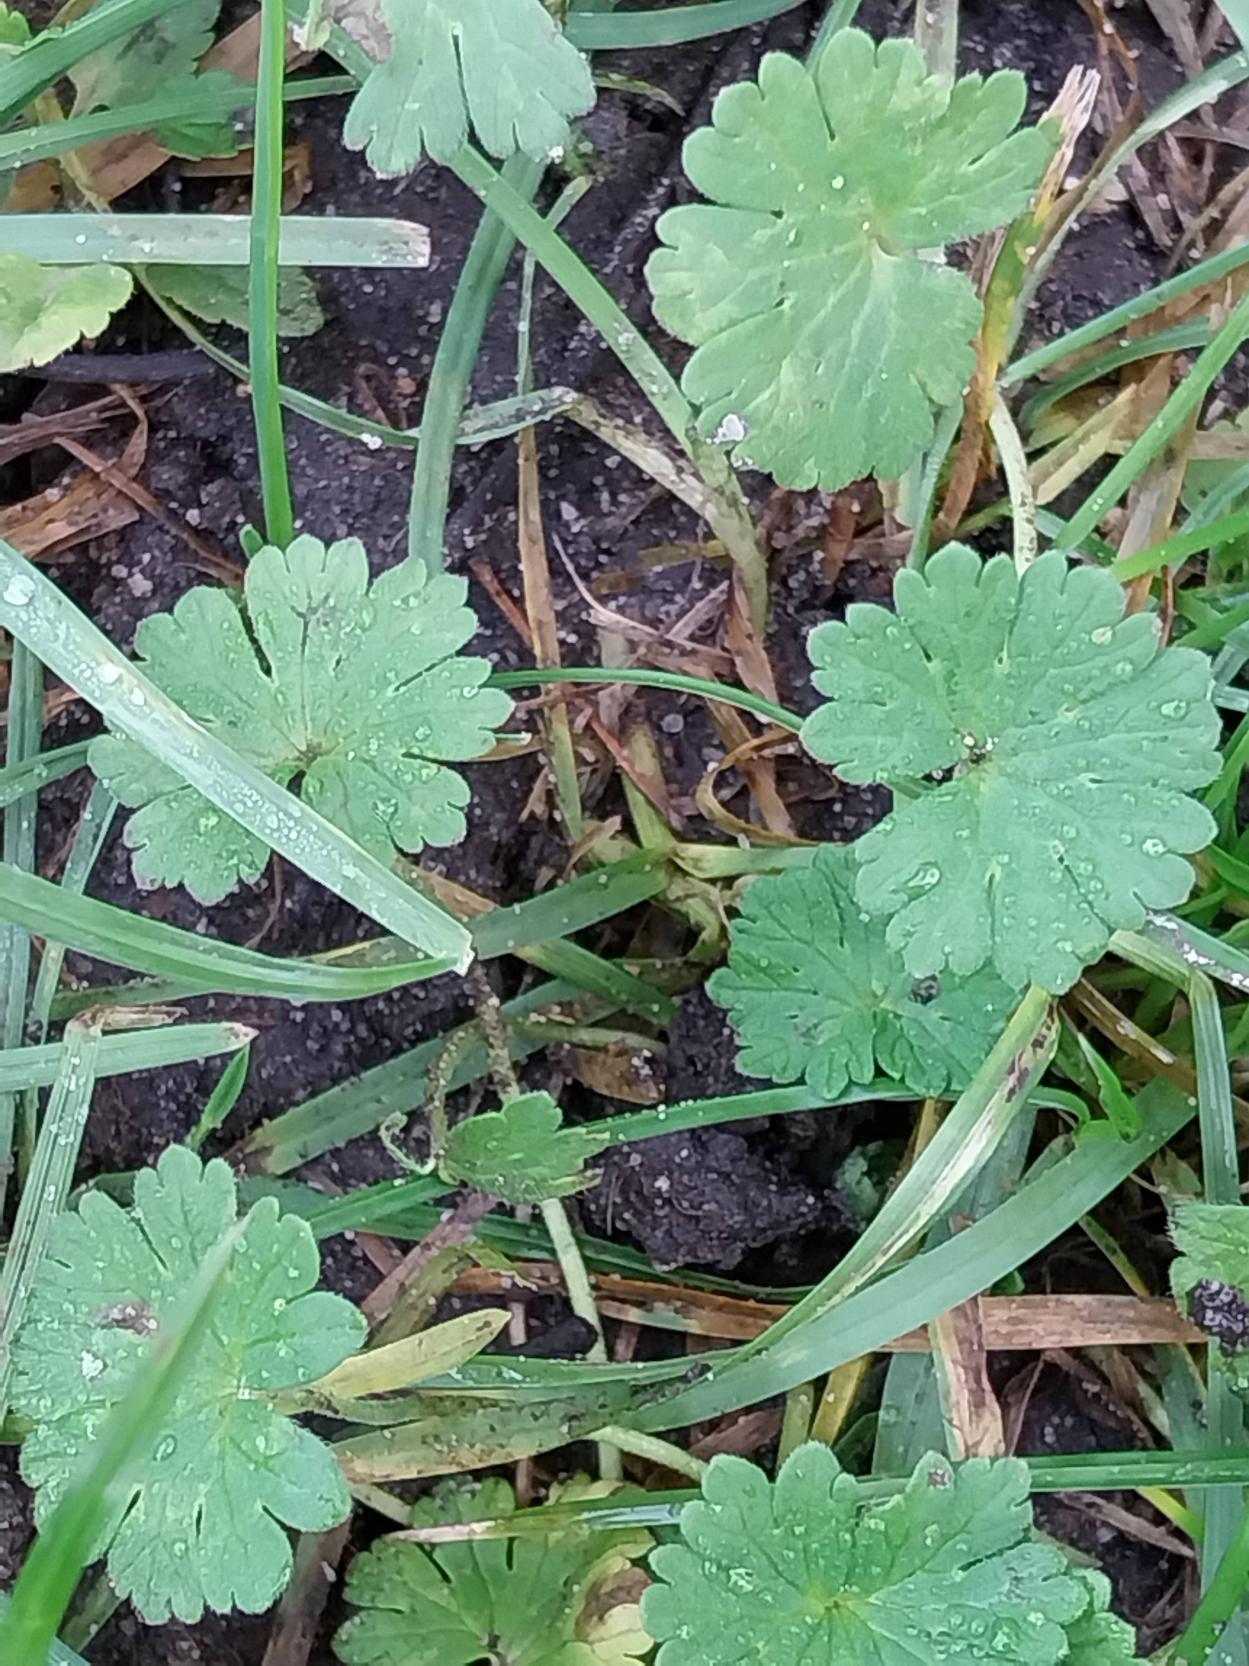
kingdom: Plantae
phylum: Tracheophyta
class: Magnoliopsida
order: Geraniales
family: Geraniaceae
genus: Geranium
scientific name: Geranium pusillum
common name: Liden storkenæb
